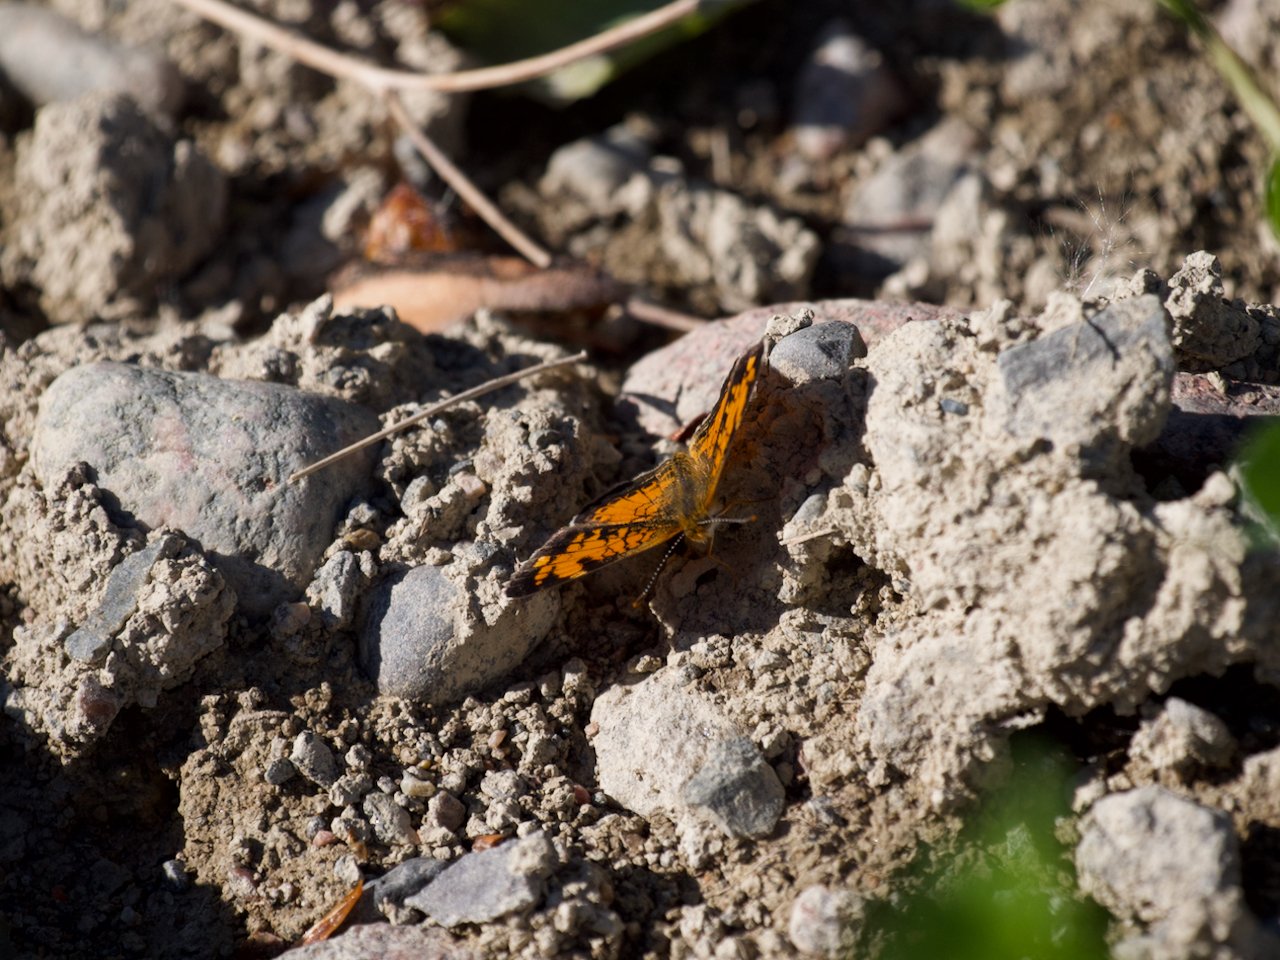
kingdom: Animalia
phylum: Arthropoda
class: Insecta
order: Lepidoptera
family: Nymphalidae
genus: Phyciodes
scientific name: Phyciodes tharos
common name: Northern Crescent
